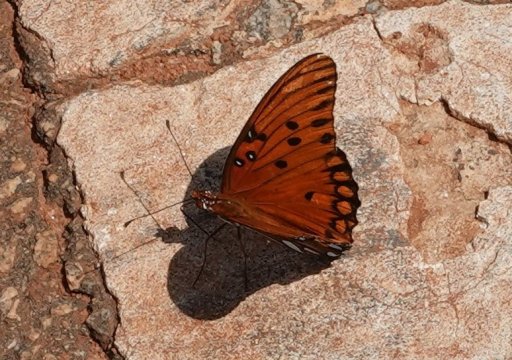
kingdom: Animalia
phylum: Arthropoda
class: Insecta
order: Lepidoptera
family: Nymphalidae
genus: Dione
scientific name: Dione vanillae
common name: Gulf Fritillary
